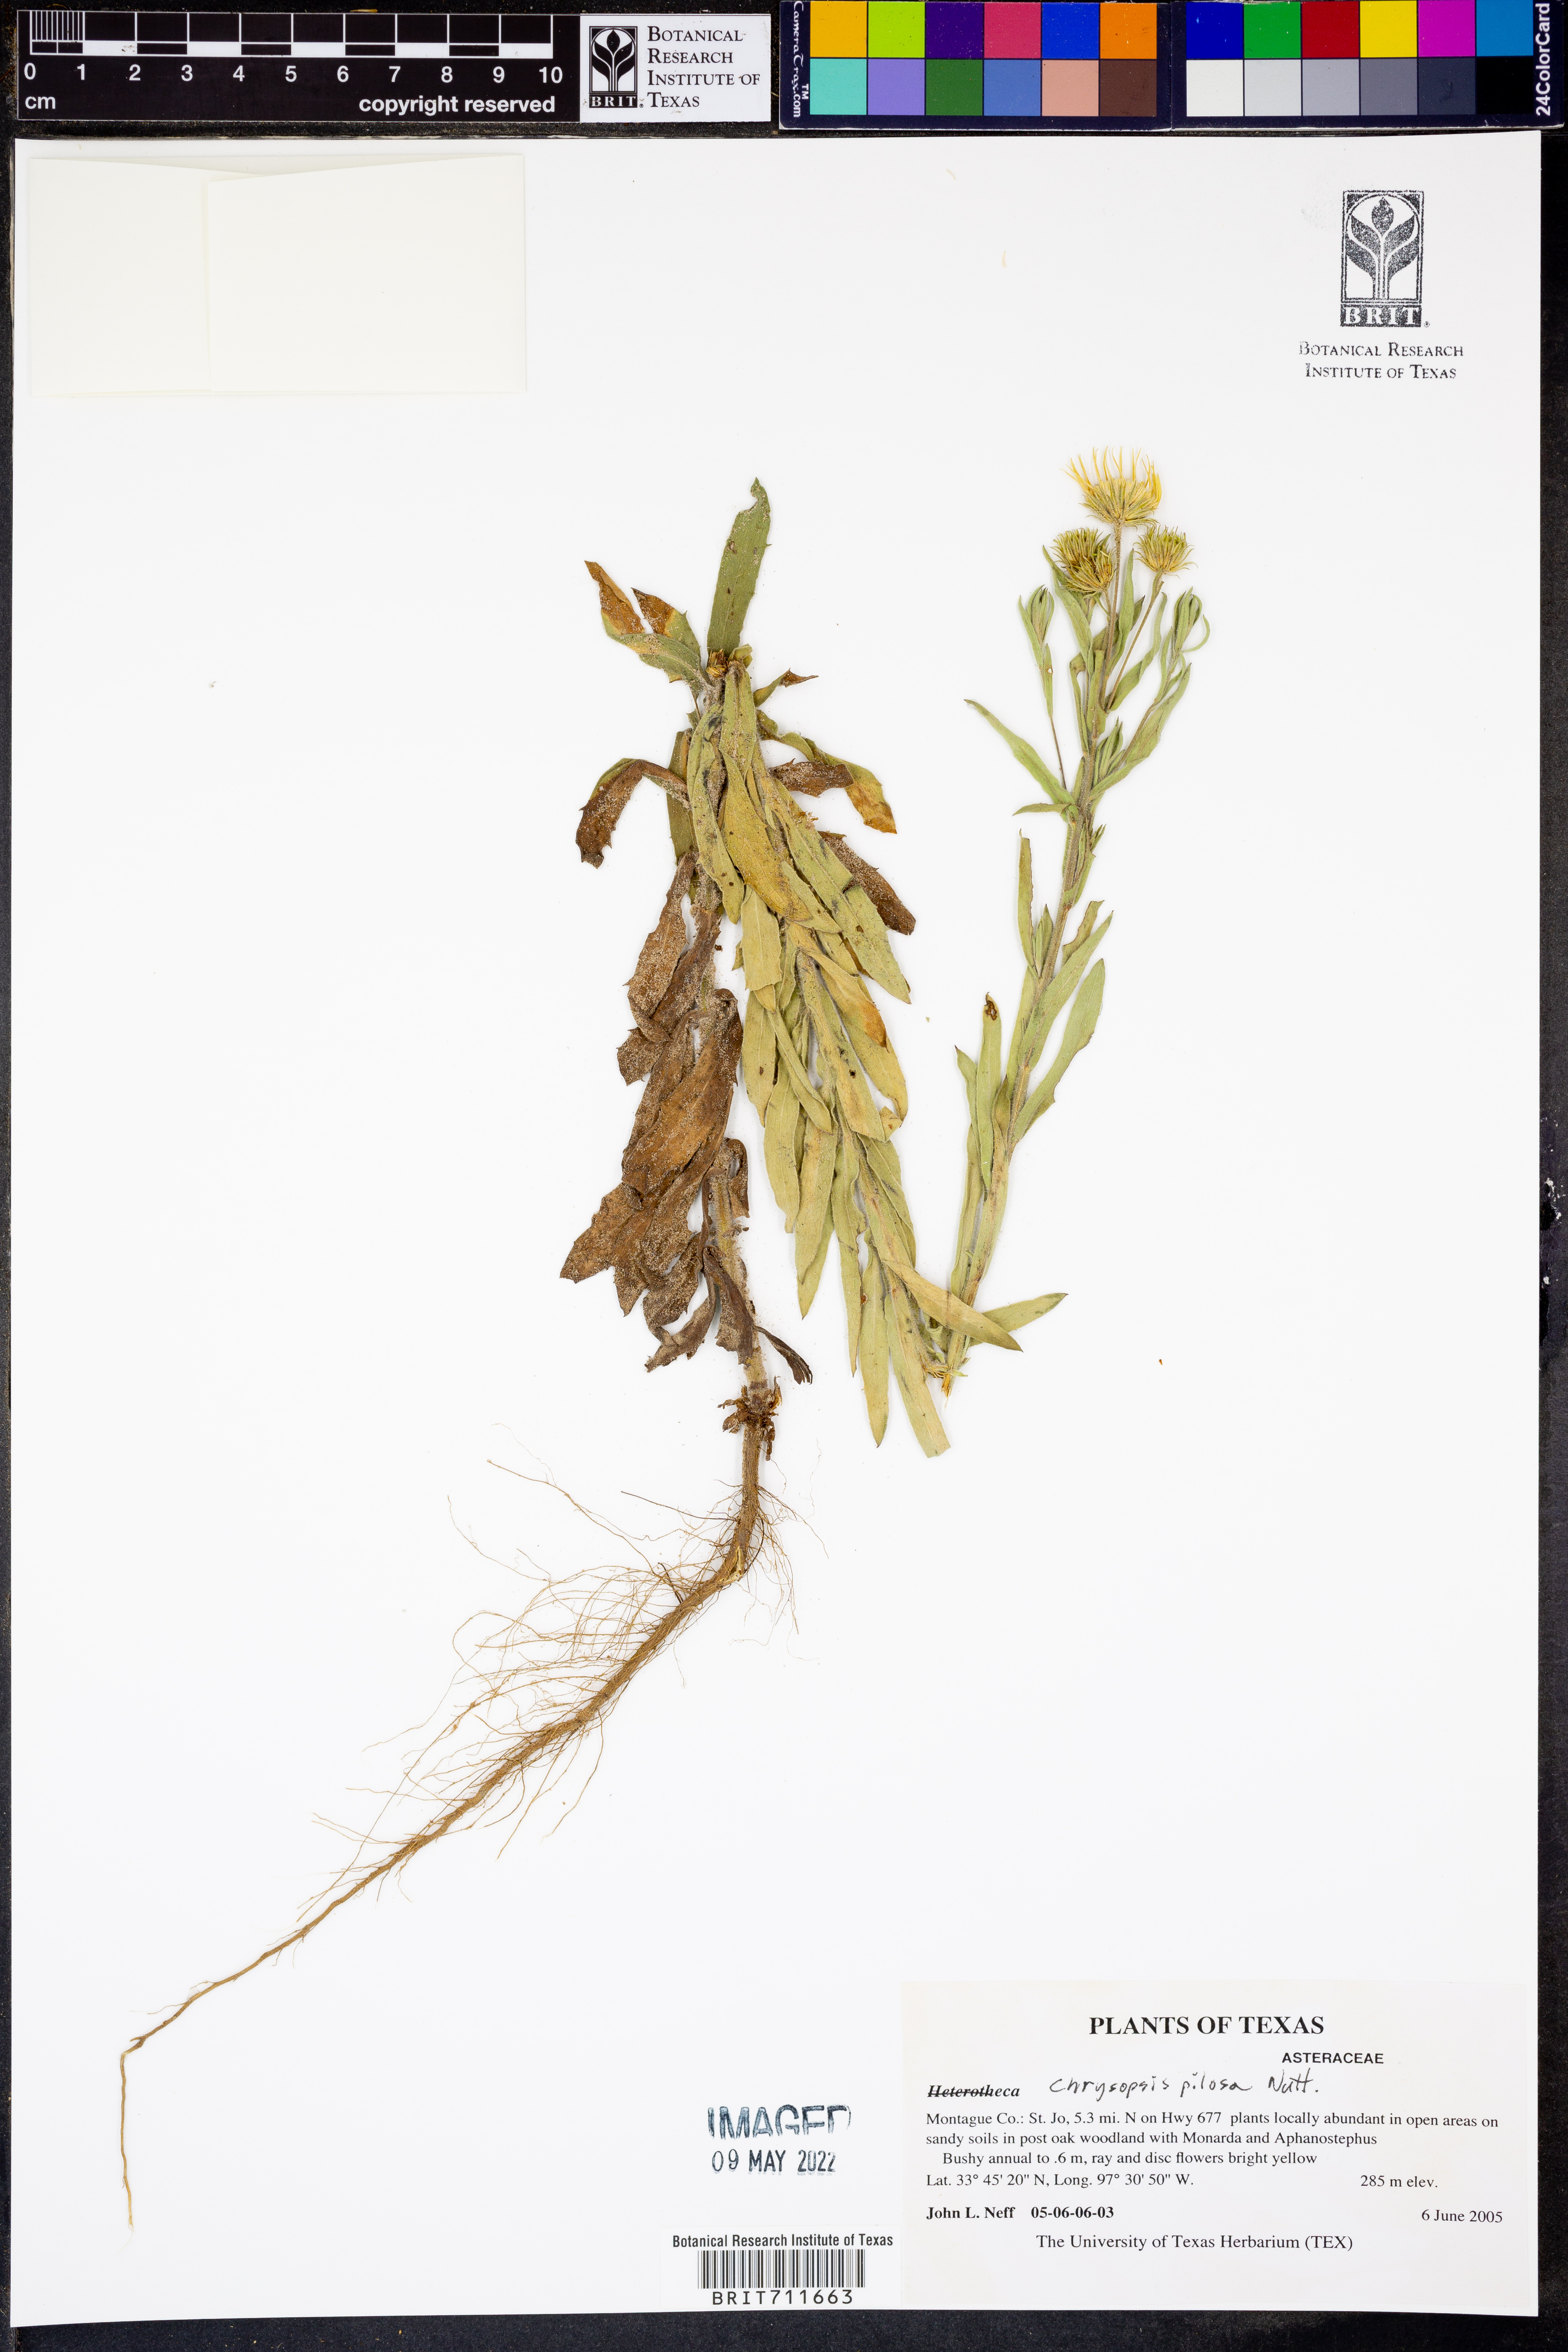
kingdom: Plantae
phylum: Tracheophyta
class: Magnoliopsida
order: Asterales
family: Asteraceae
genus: Bradburia
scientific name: Bradburia pilosa
